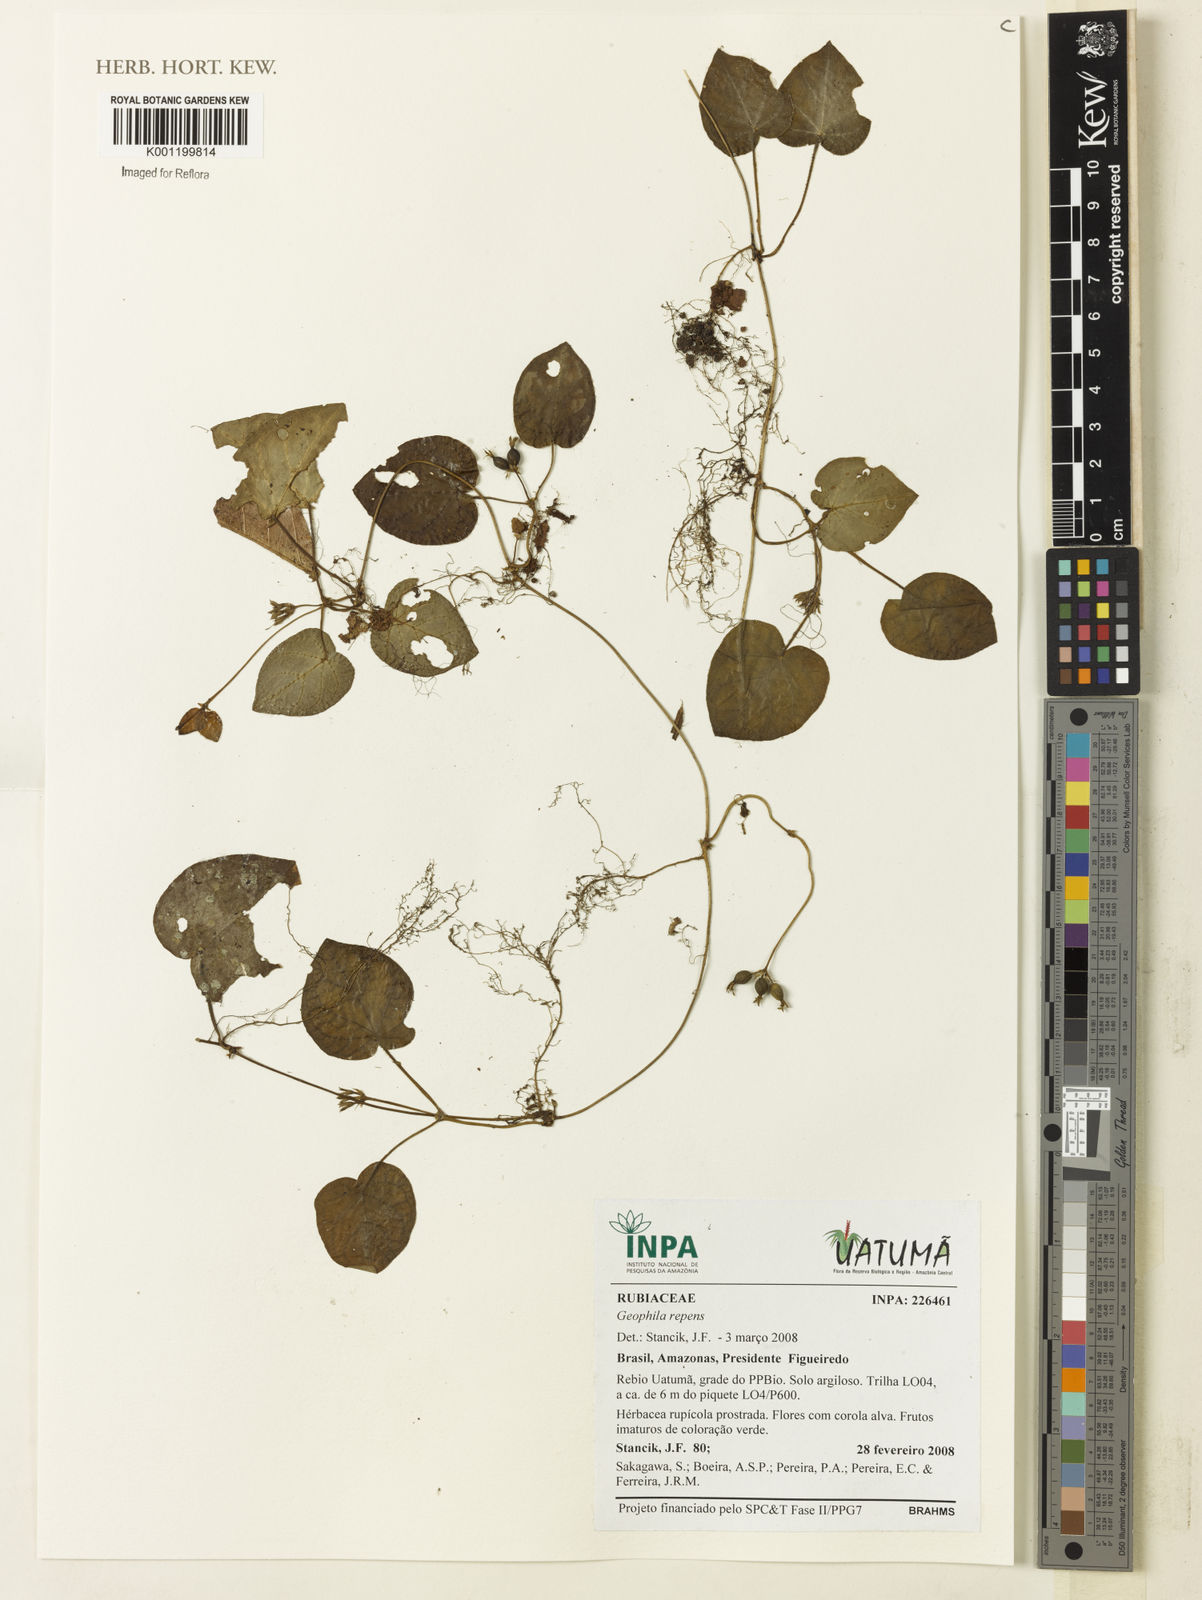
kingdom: Plantae
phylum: Tracheophyta
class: Magnoliopsida
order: Gentianales
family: Rubiaceae
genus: Geophila
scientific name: Geophila repens
